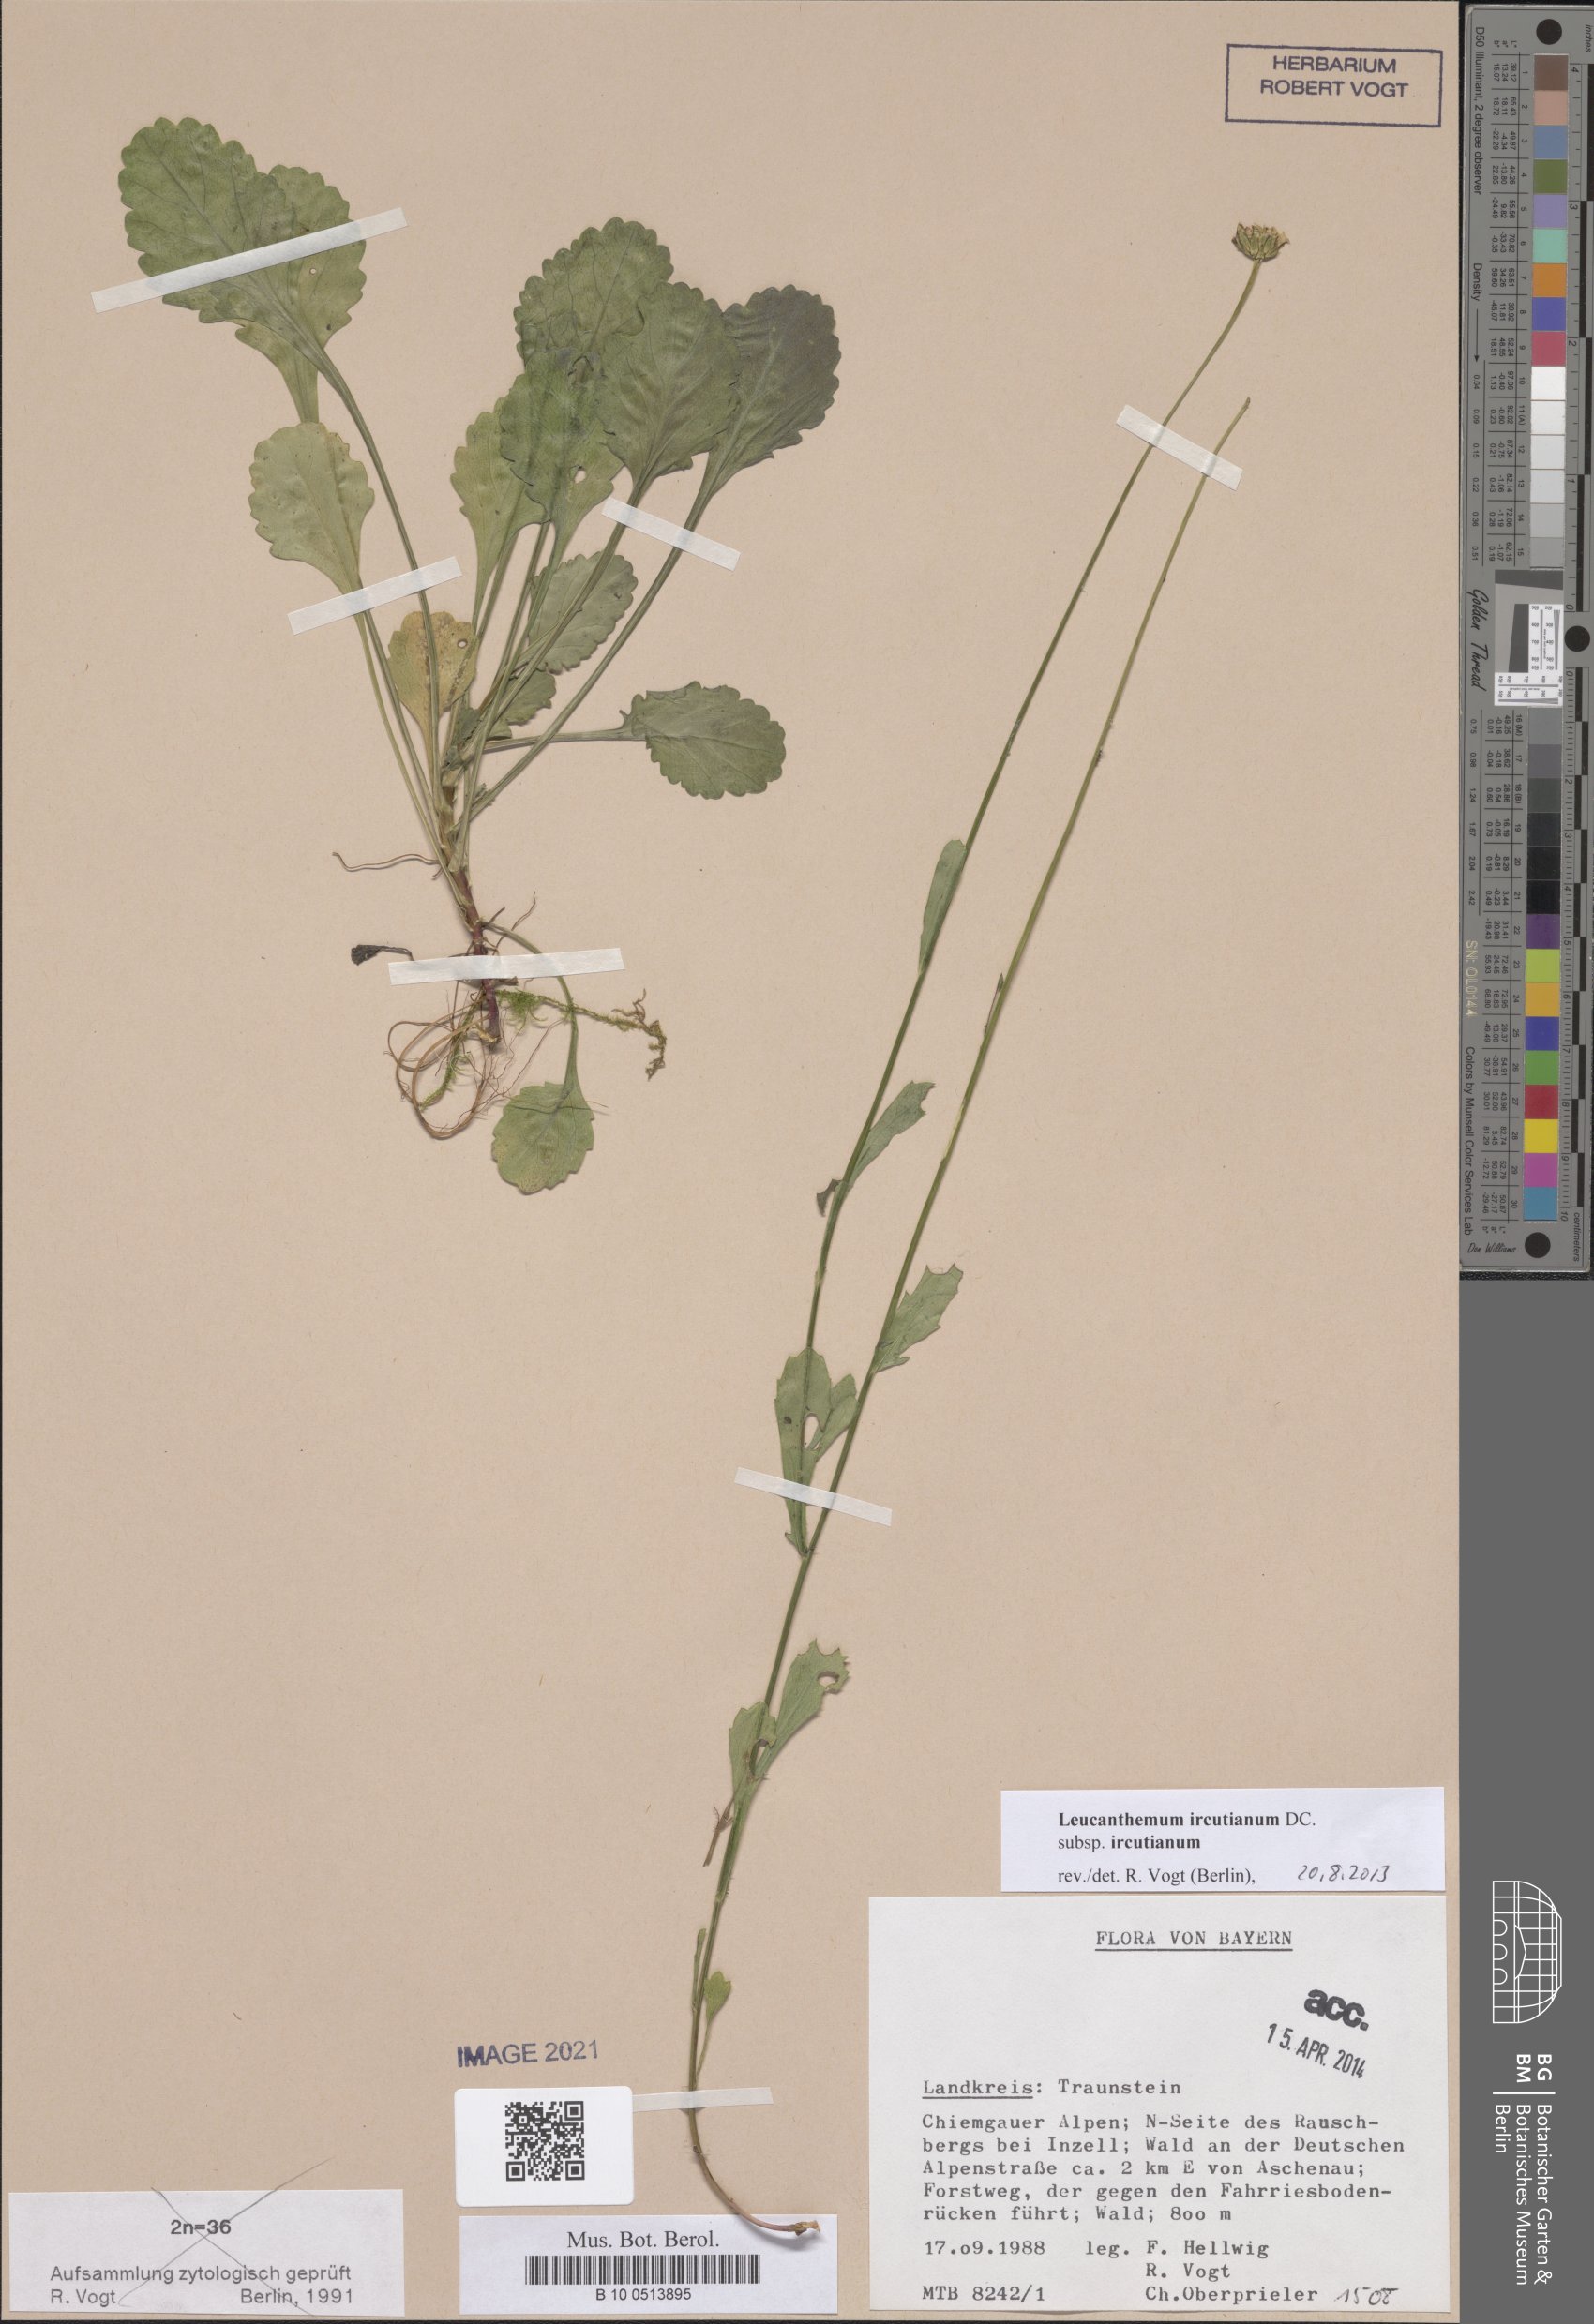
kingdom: Plantae
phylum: Tracheophyta
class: Magnoliopsida
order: Asterales
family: Asteraceae
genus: Leucanthemum
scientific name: Leucanthemum ircutianum
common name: Daisy
